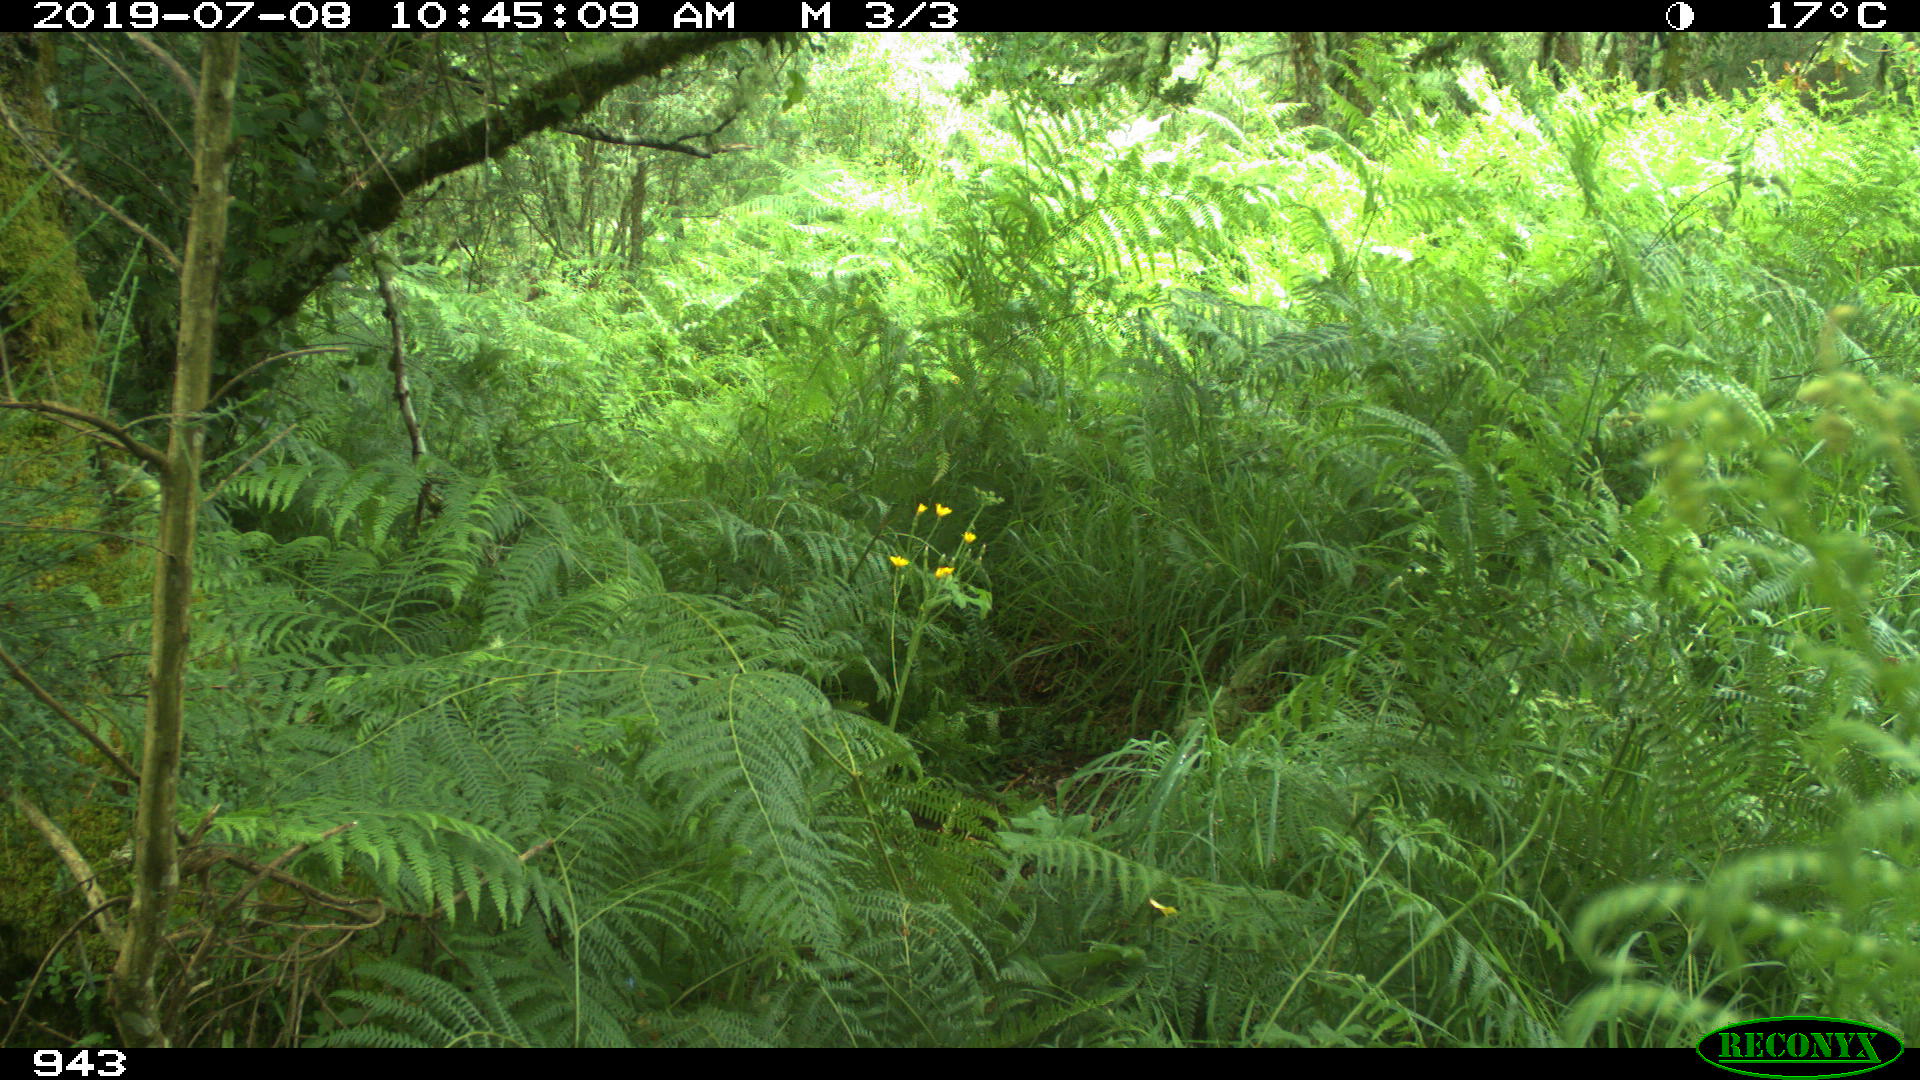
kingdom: Animalia
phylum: Chordata
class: Mammalia
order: Artiodactyla
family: Bovidae
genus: Bos
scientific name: Bos taurus
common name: Domesticated cattle
